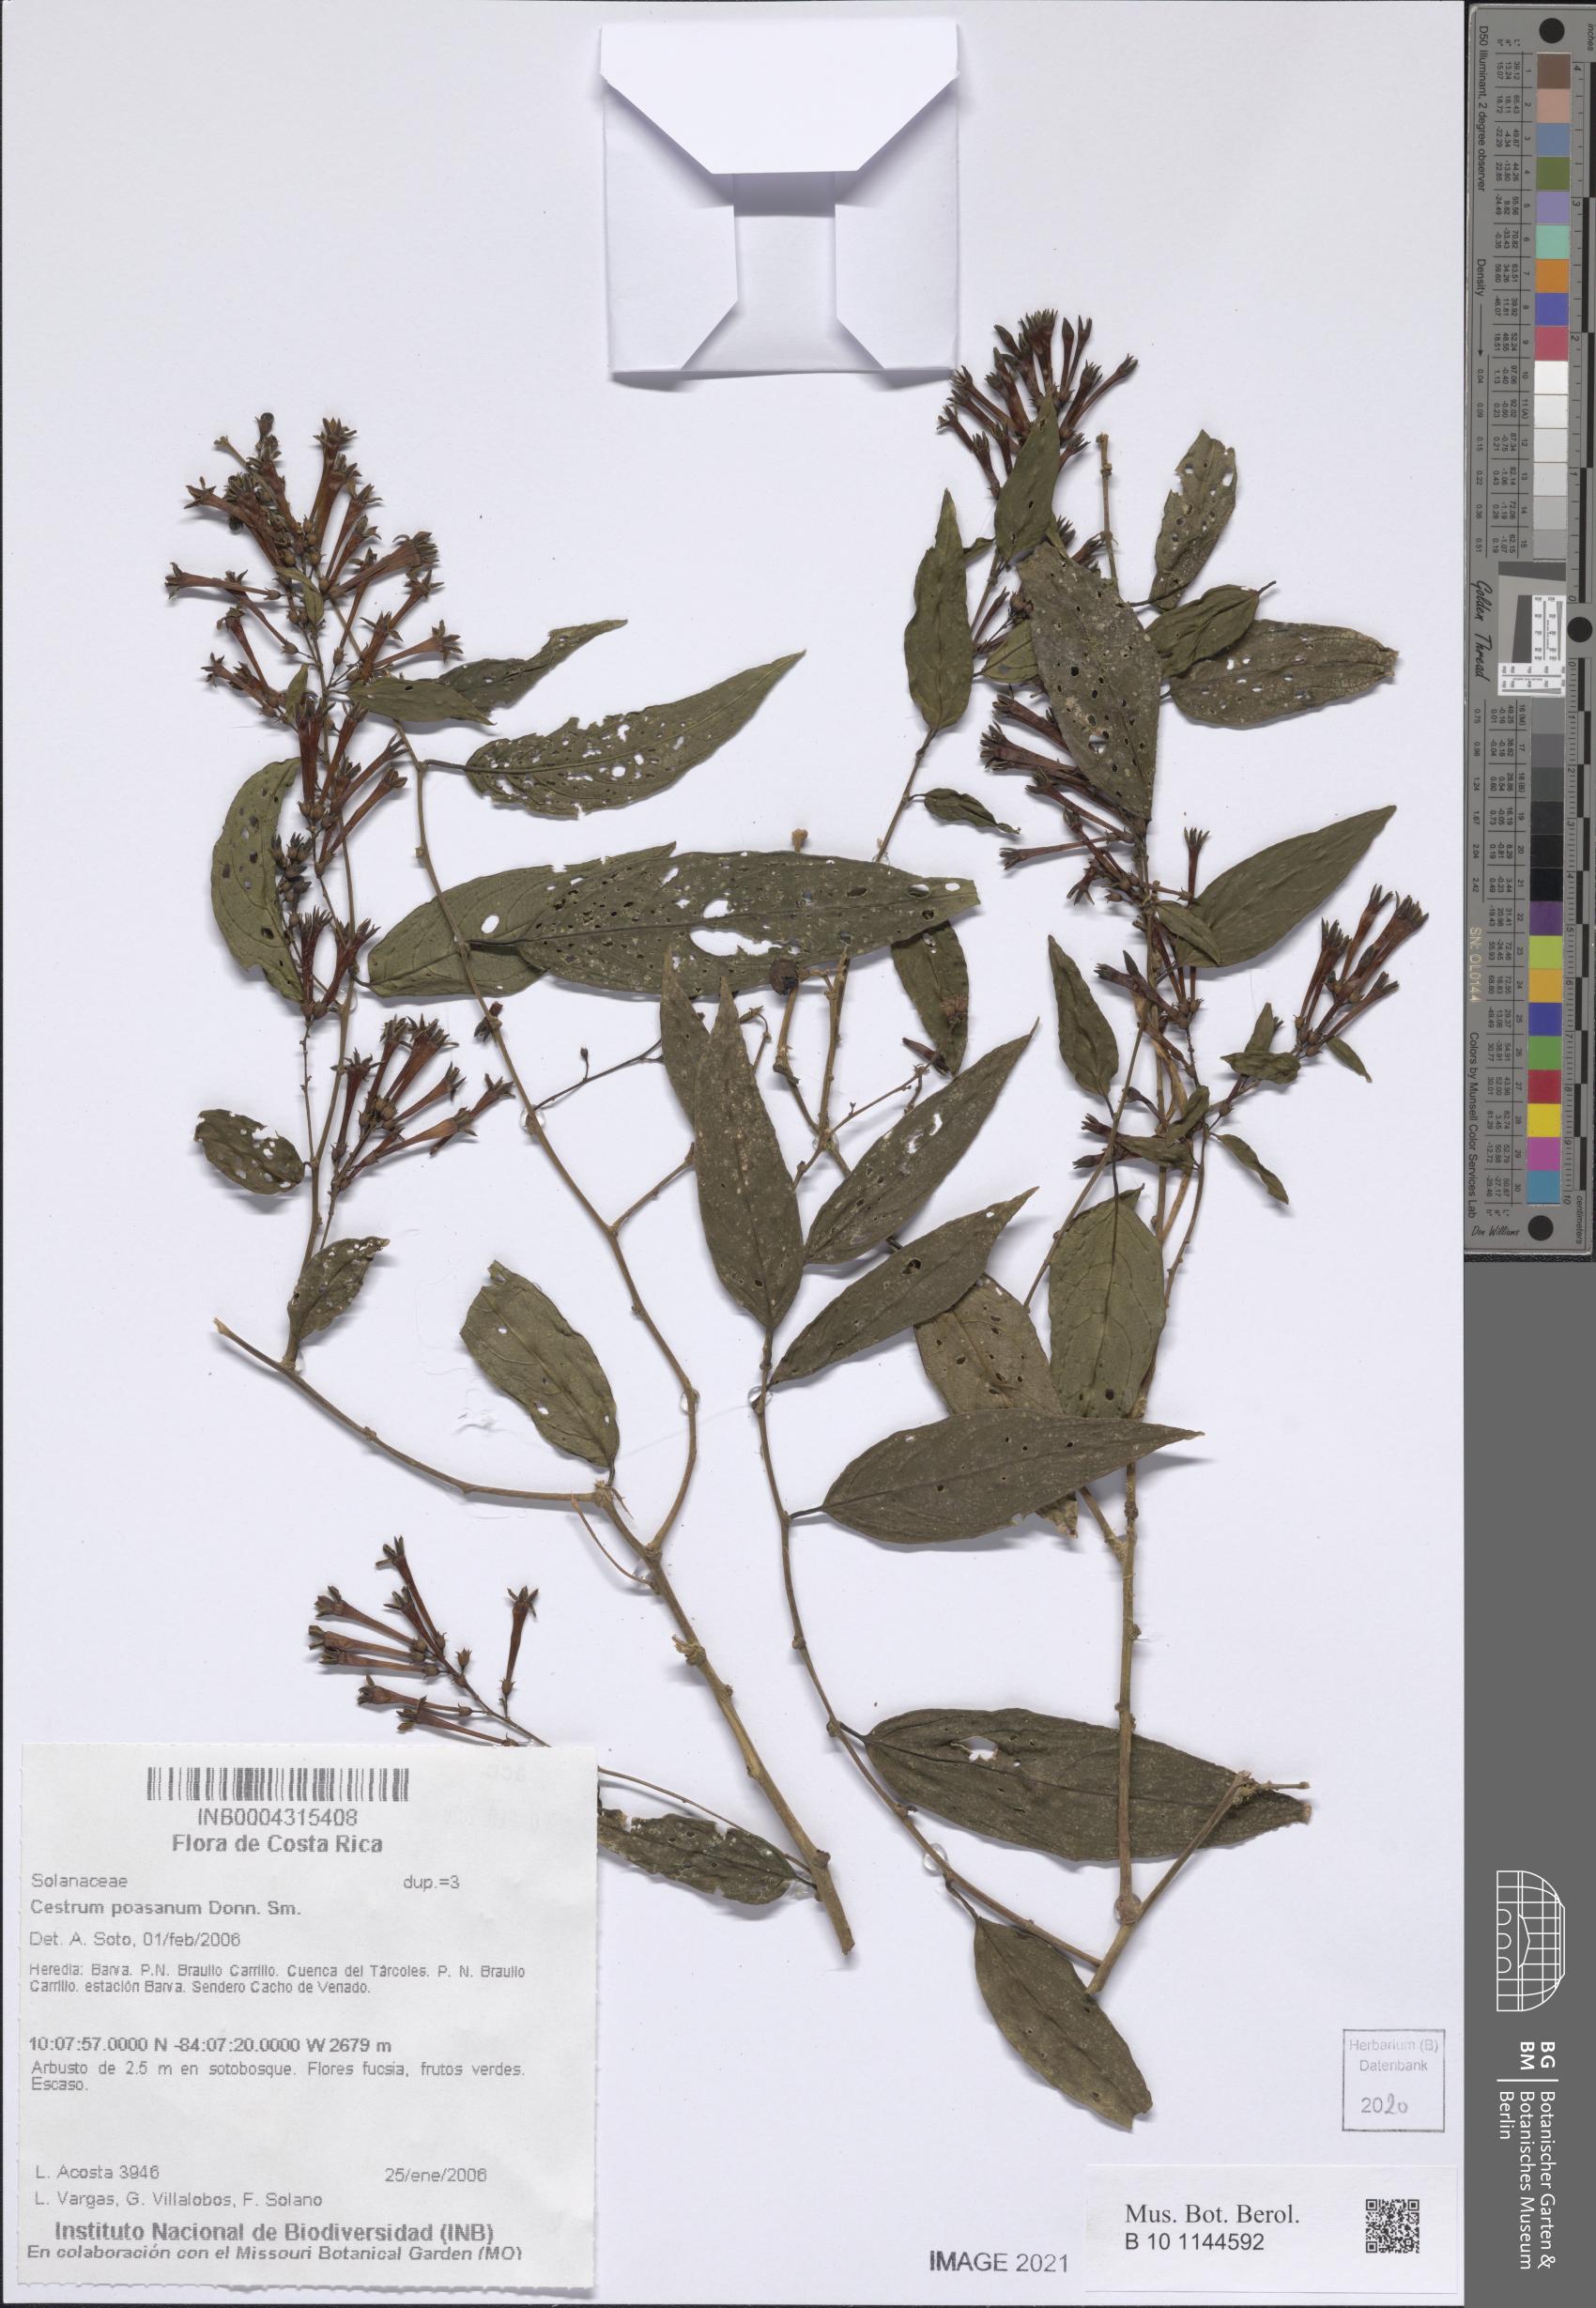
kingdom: Plantae
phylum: Tracheophyta
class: Magnoliopsida
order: Solanales
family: Solanaceae
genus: Cestrum
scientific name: Cestrum poasanum
